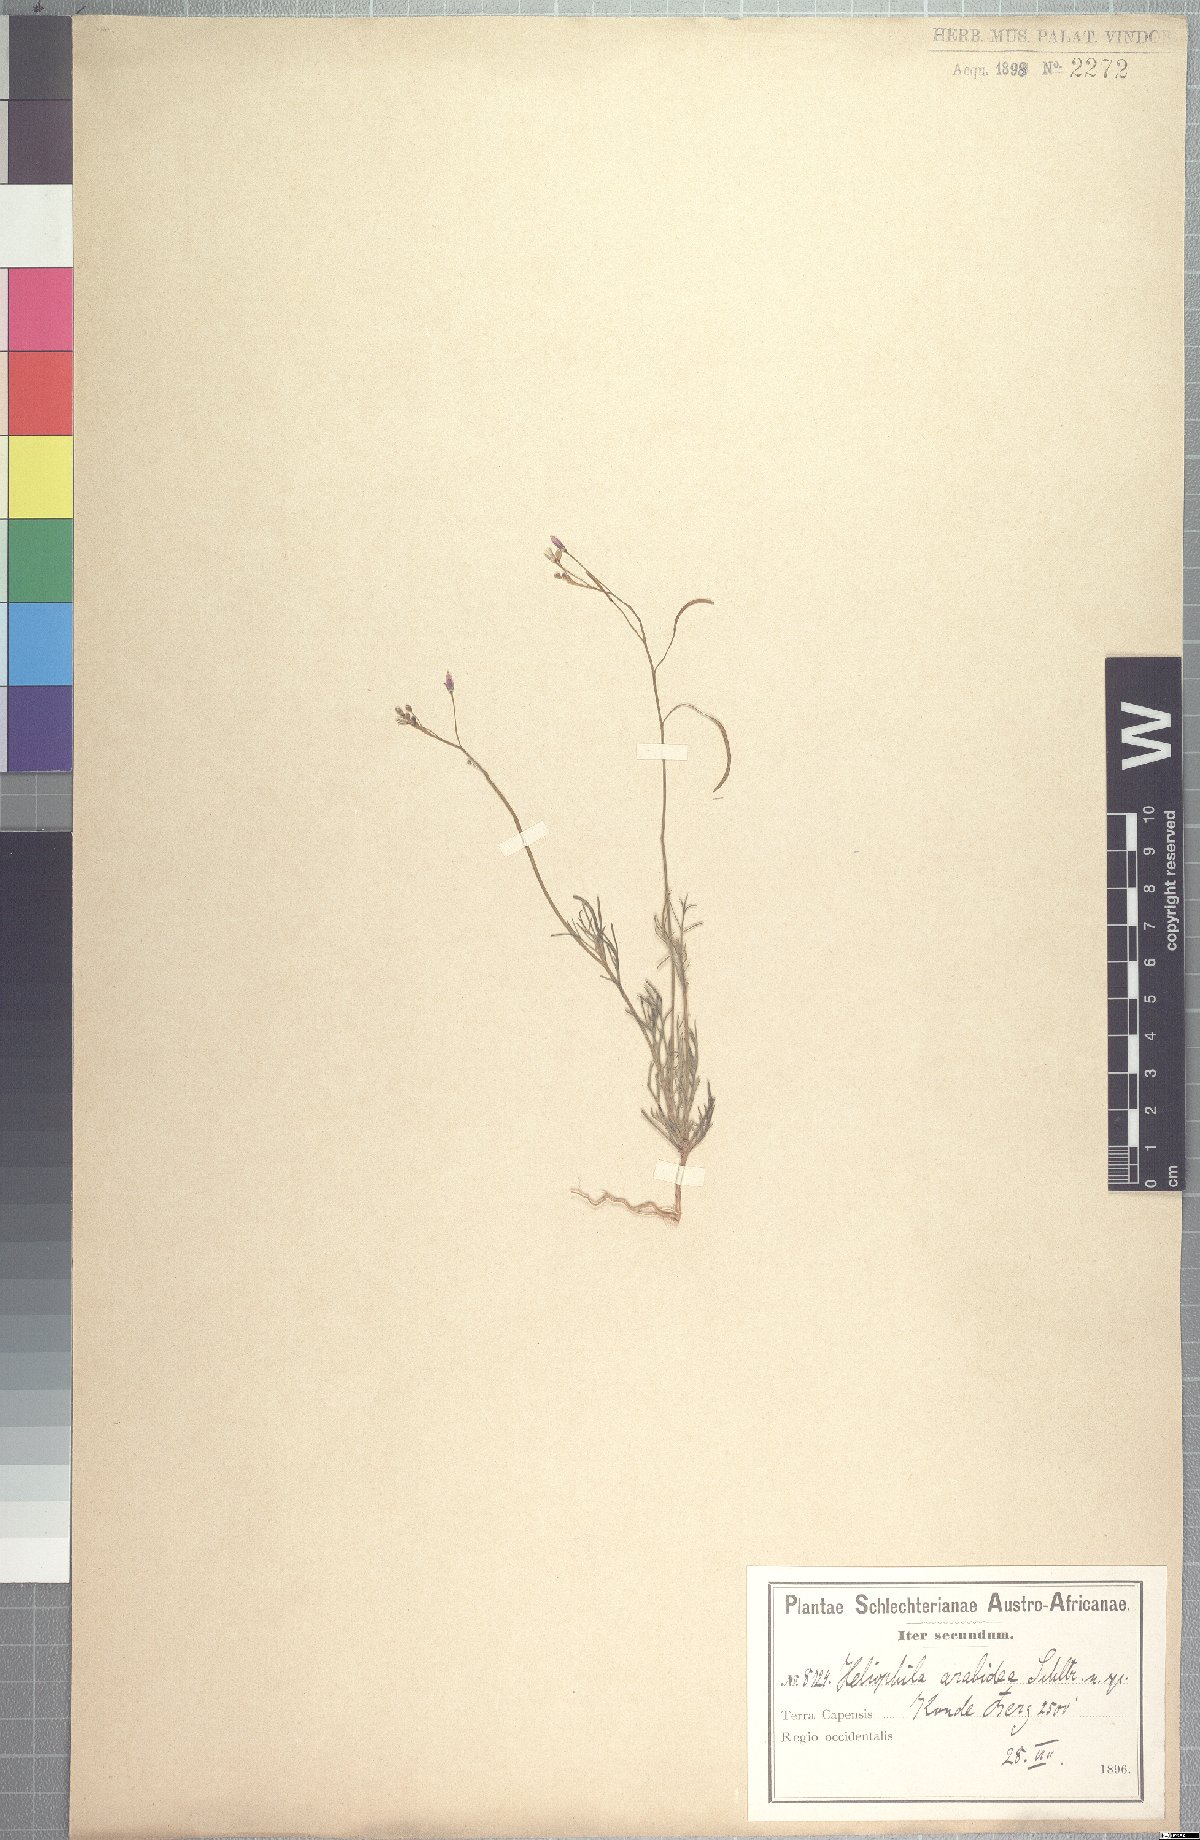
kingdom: Plantae
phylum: Tracheophyta
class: Magnoliopsida
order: Brassicales
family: Brassicaceae
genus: Heliophila
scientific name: Heliophila crithmifolia
